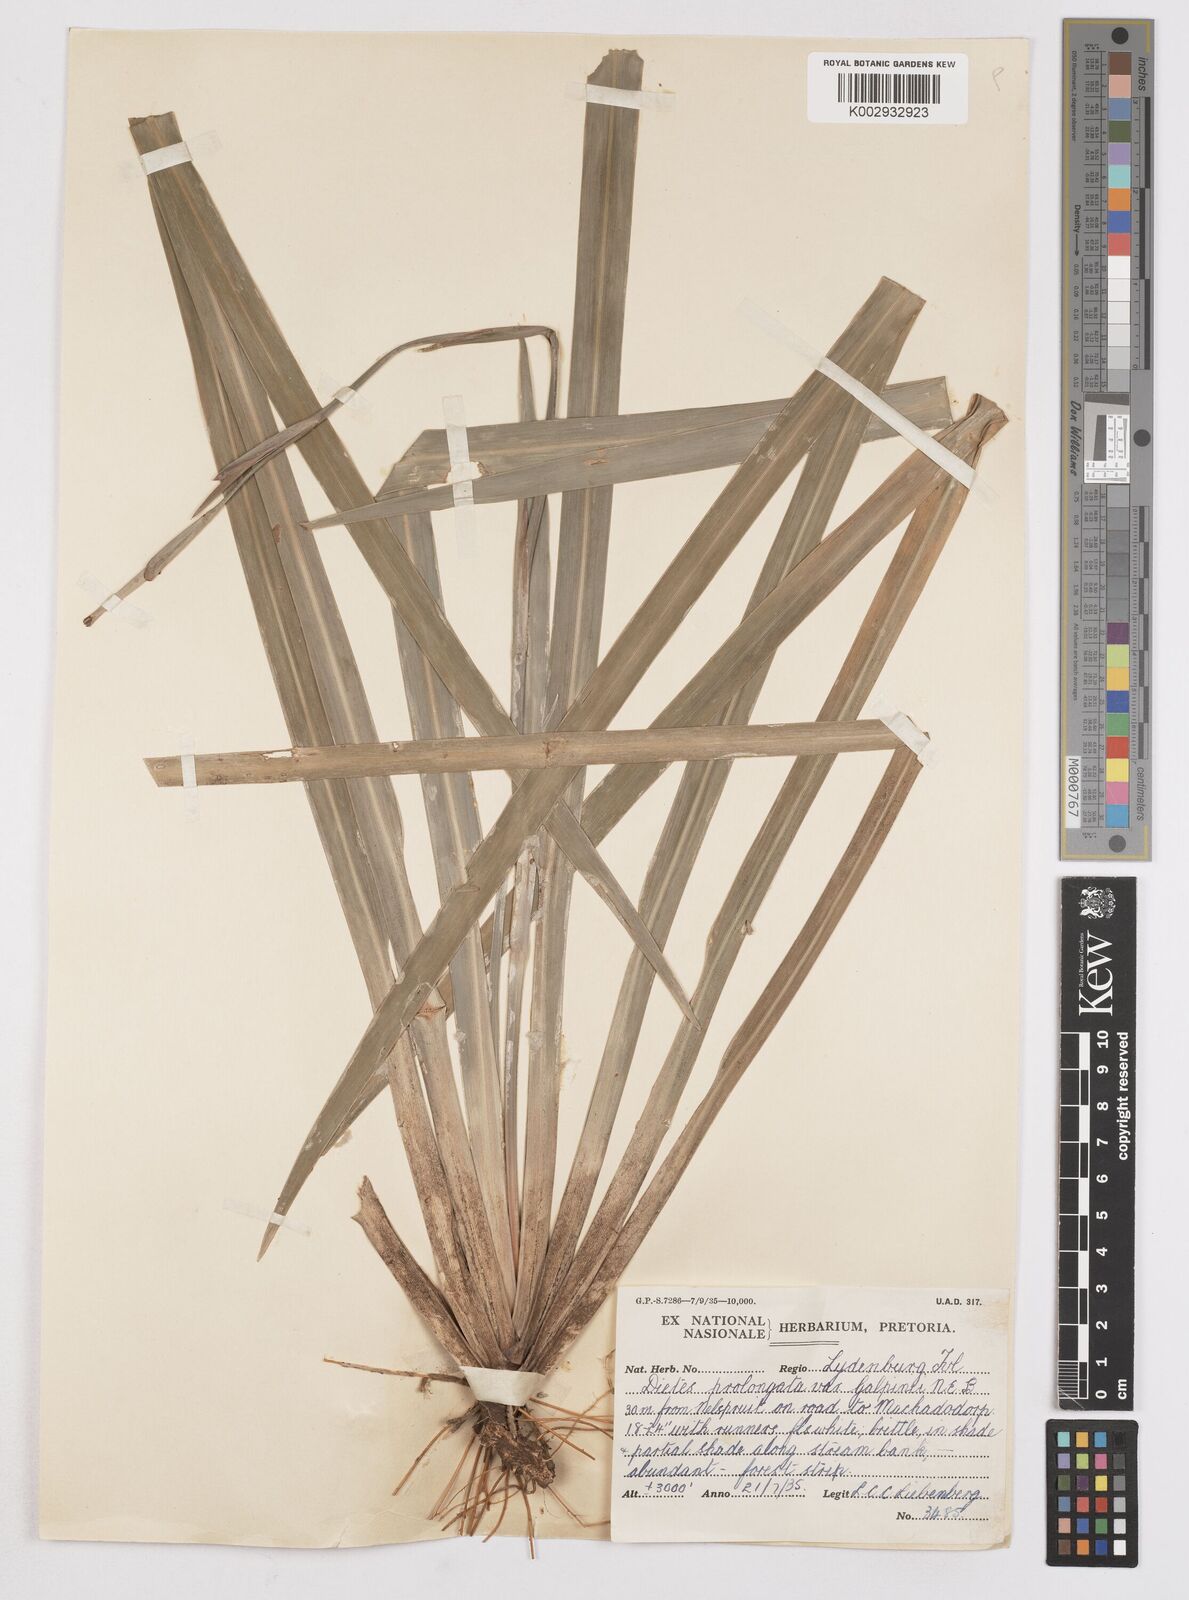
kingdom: Plantae
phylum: Tracheophyta
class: Liliopsida
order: Asparagales
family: Iridaceae
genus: Dietes
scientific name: Dietes iridioides
